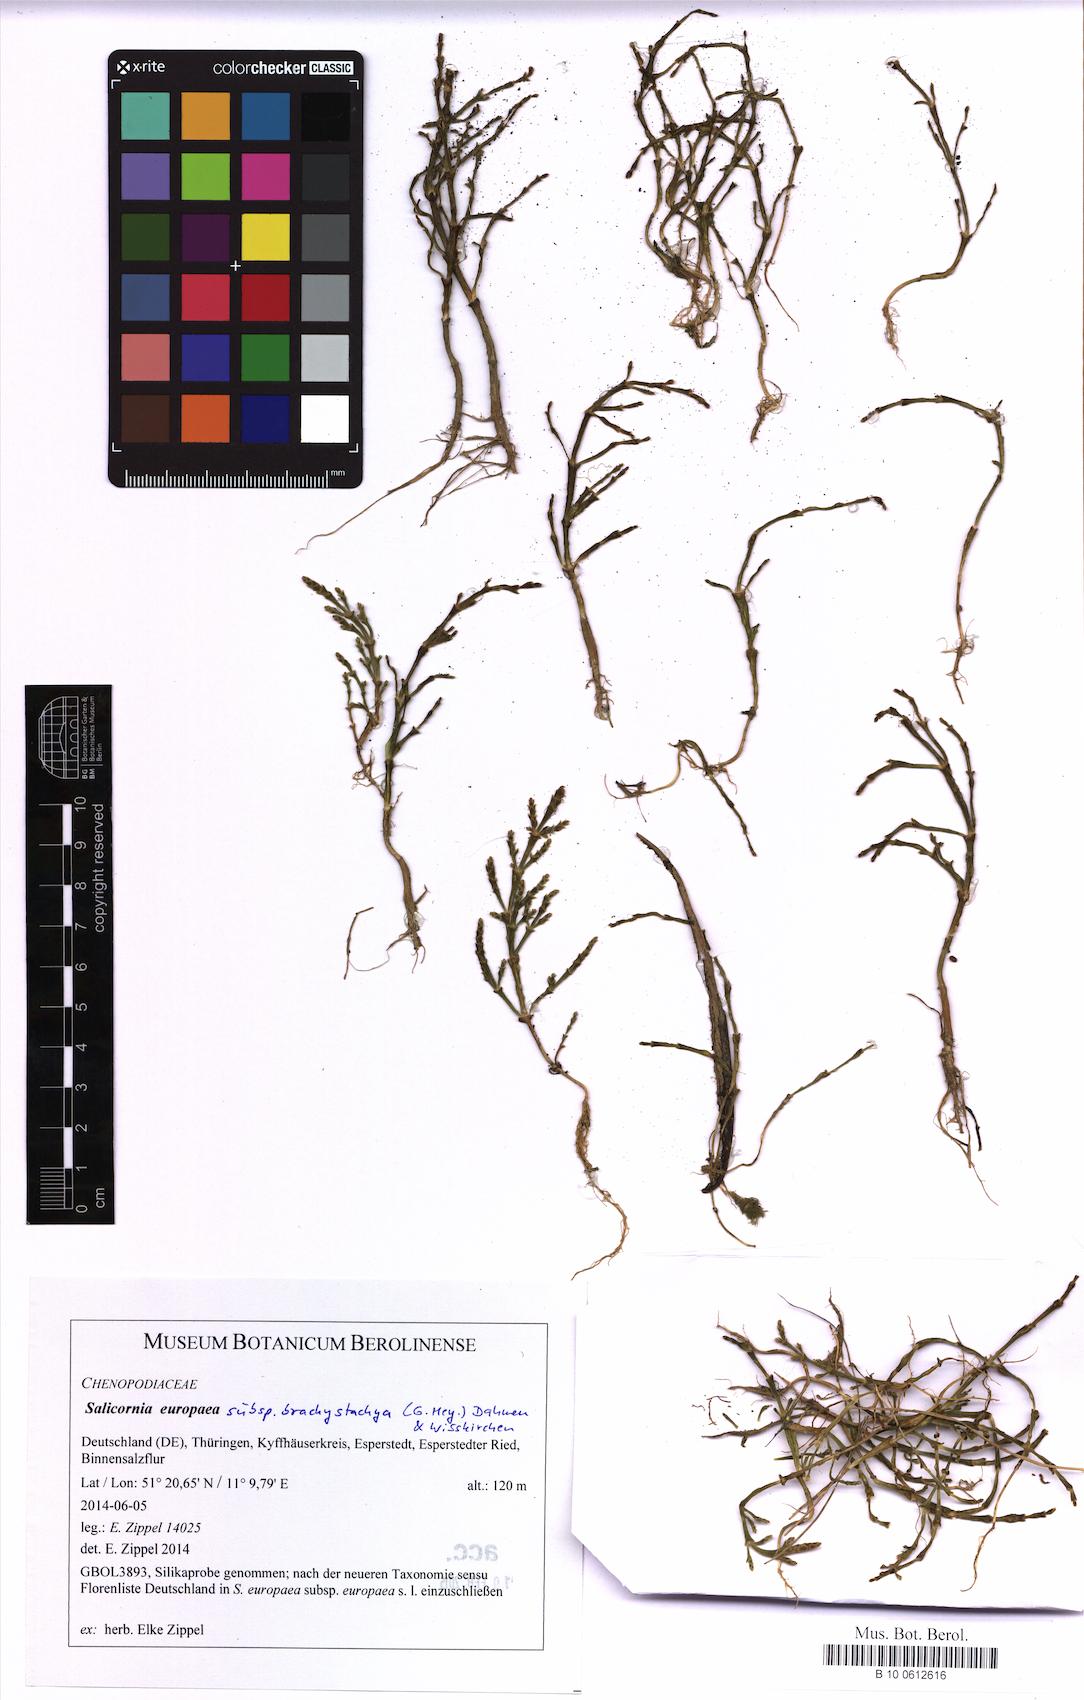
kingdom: Plantae
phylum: Tracheophyta
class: Magnoliopsida
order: Caryophyllales
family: Amaranthaceae
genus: Salicornia
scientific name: Salicornia europaea
